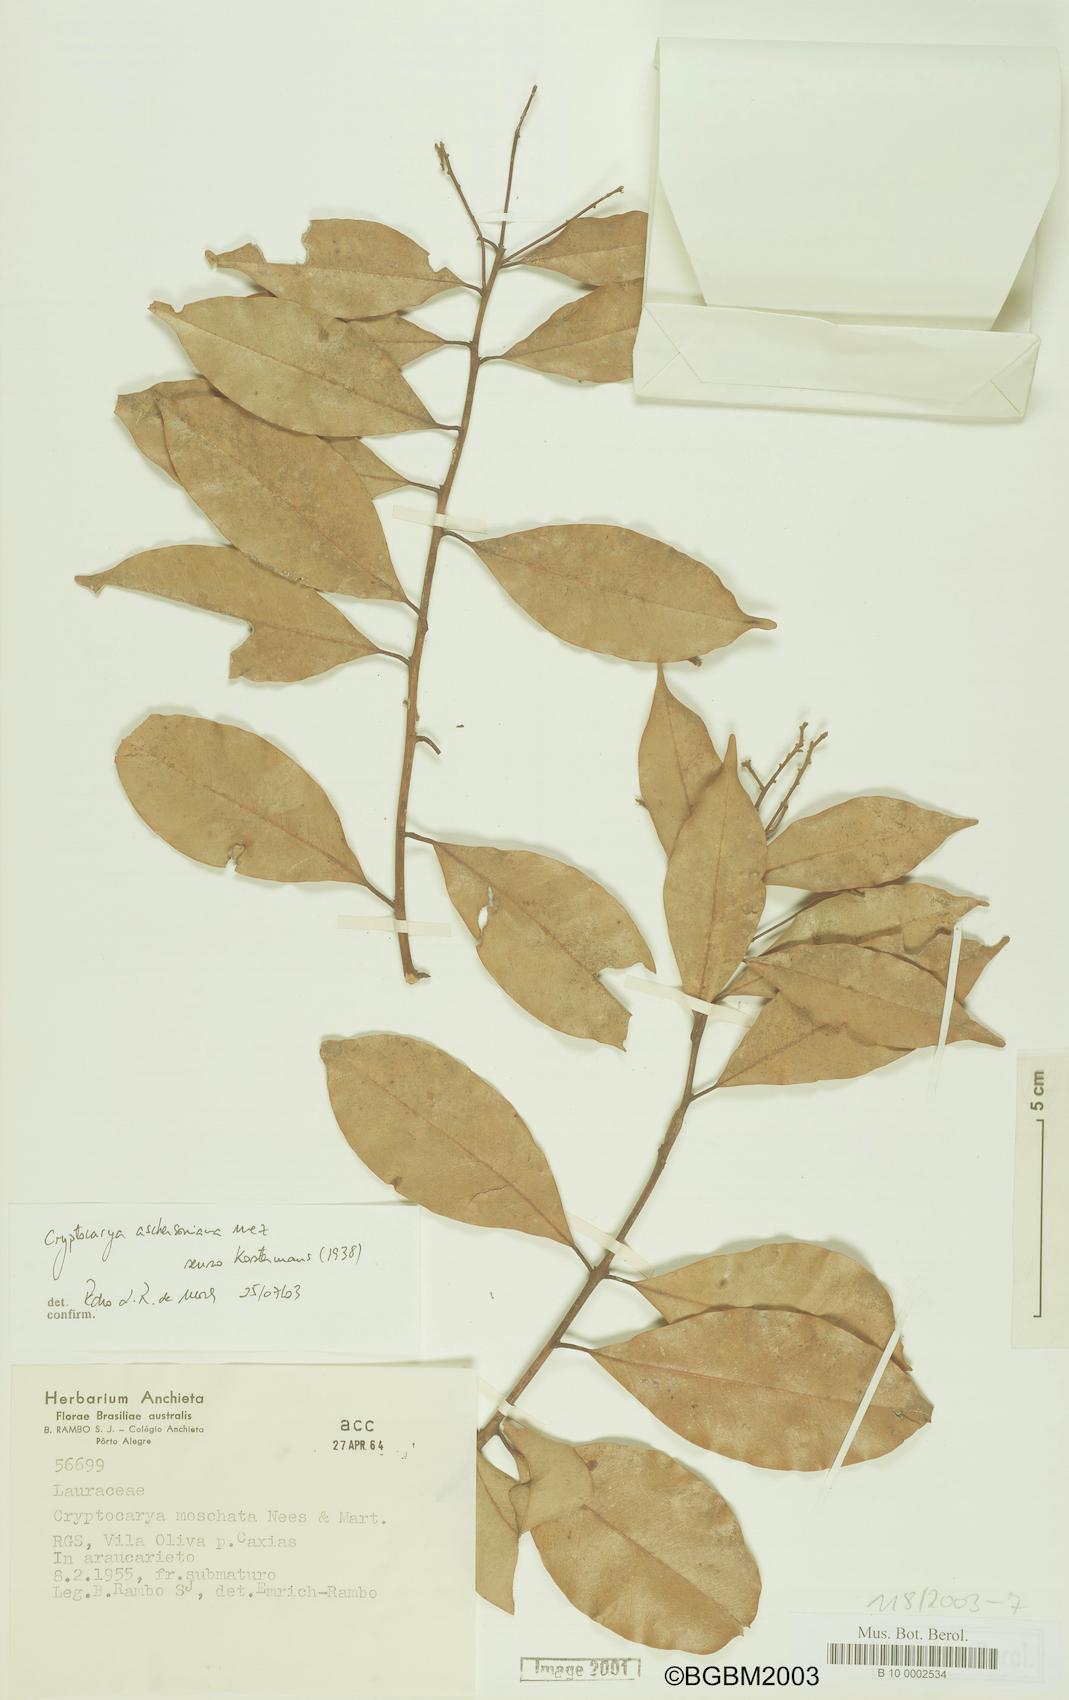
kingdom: Plantae
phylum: Tracheophyta
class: Magnoliopsida
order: Laurales
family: Lauraceae
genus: Cryptocarya
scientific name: Cryptocarya moschata
